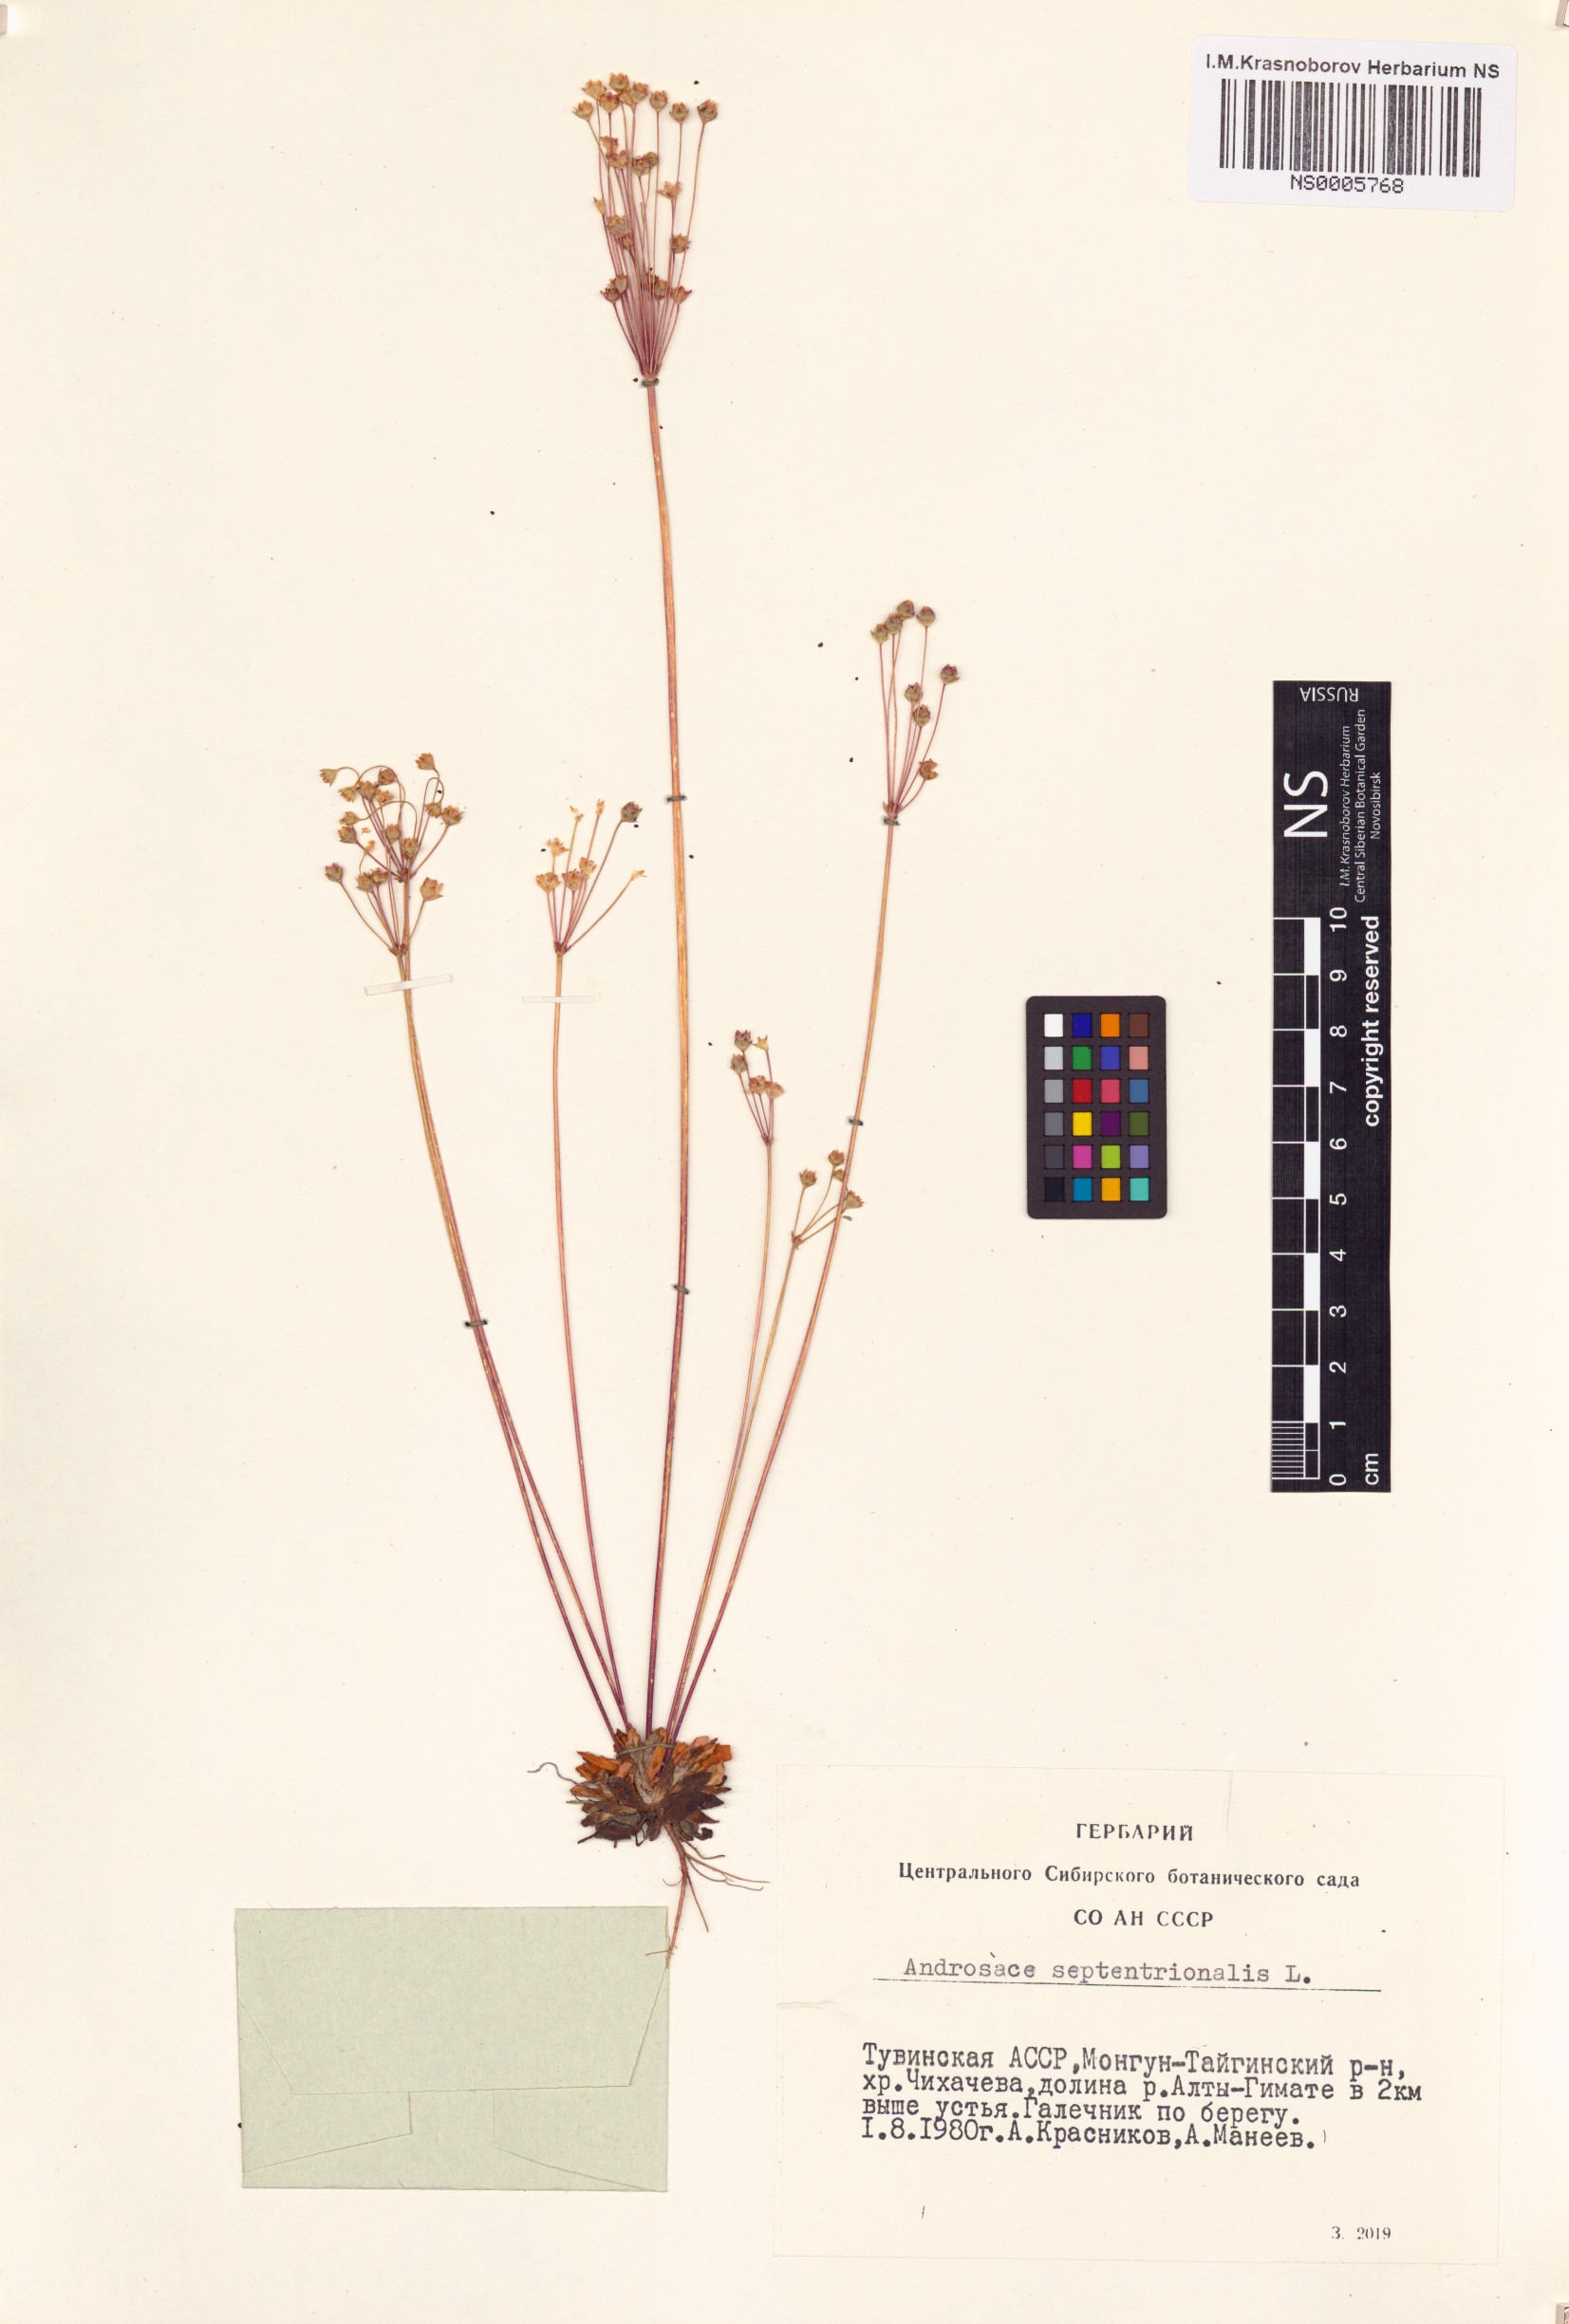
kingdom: Plantae
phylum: Tracheophyta
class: Magnoliopsida
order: Ericales
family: Primulaceae
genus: Androsace
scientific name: Androsace septentrionalis
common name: Hairy northern fairy-candelabra
